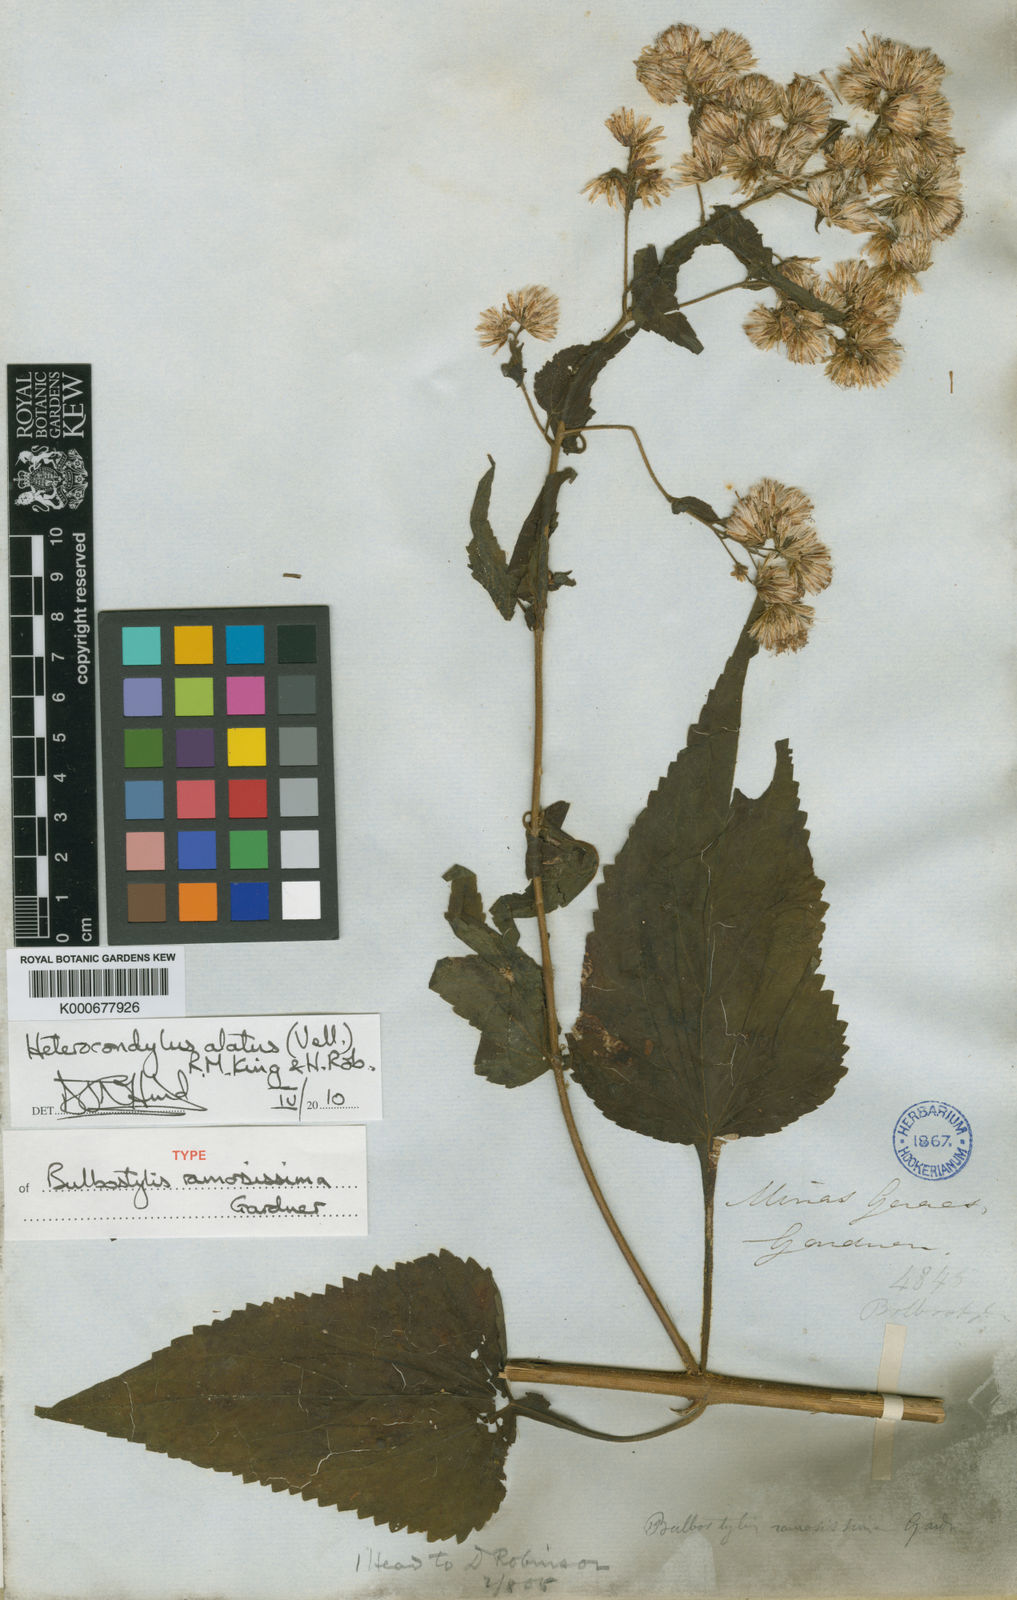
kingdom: Plantae
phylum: Tracheophyta
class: Magnoliopsida
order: Asterales
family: Asteraceae
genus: Heterocondylus
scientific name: Heterocondylus alatus
